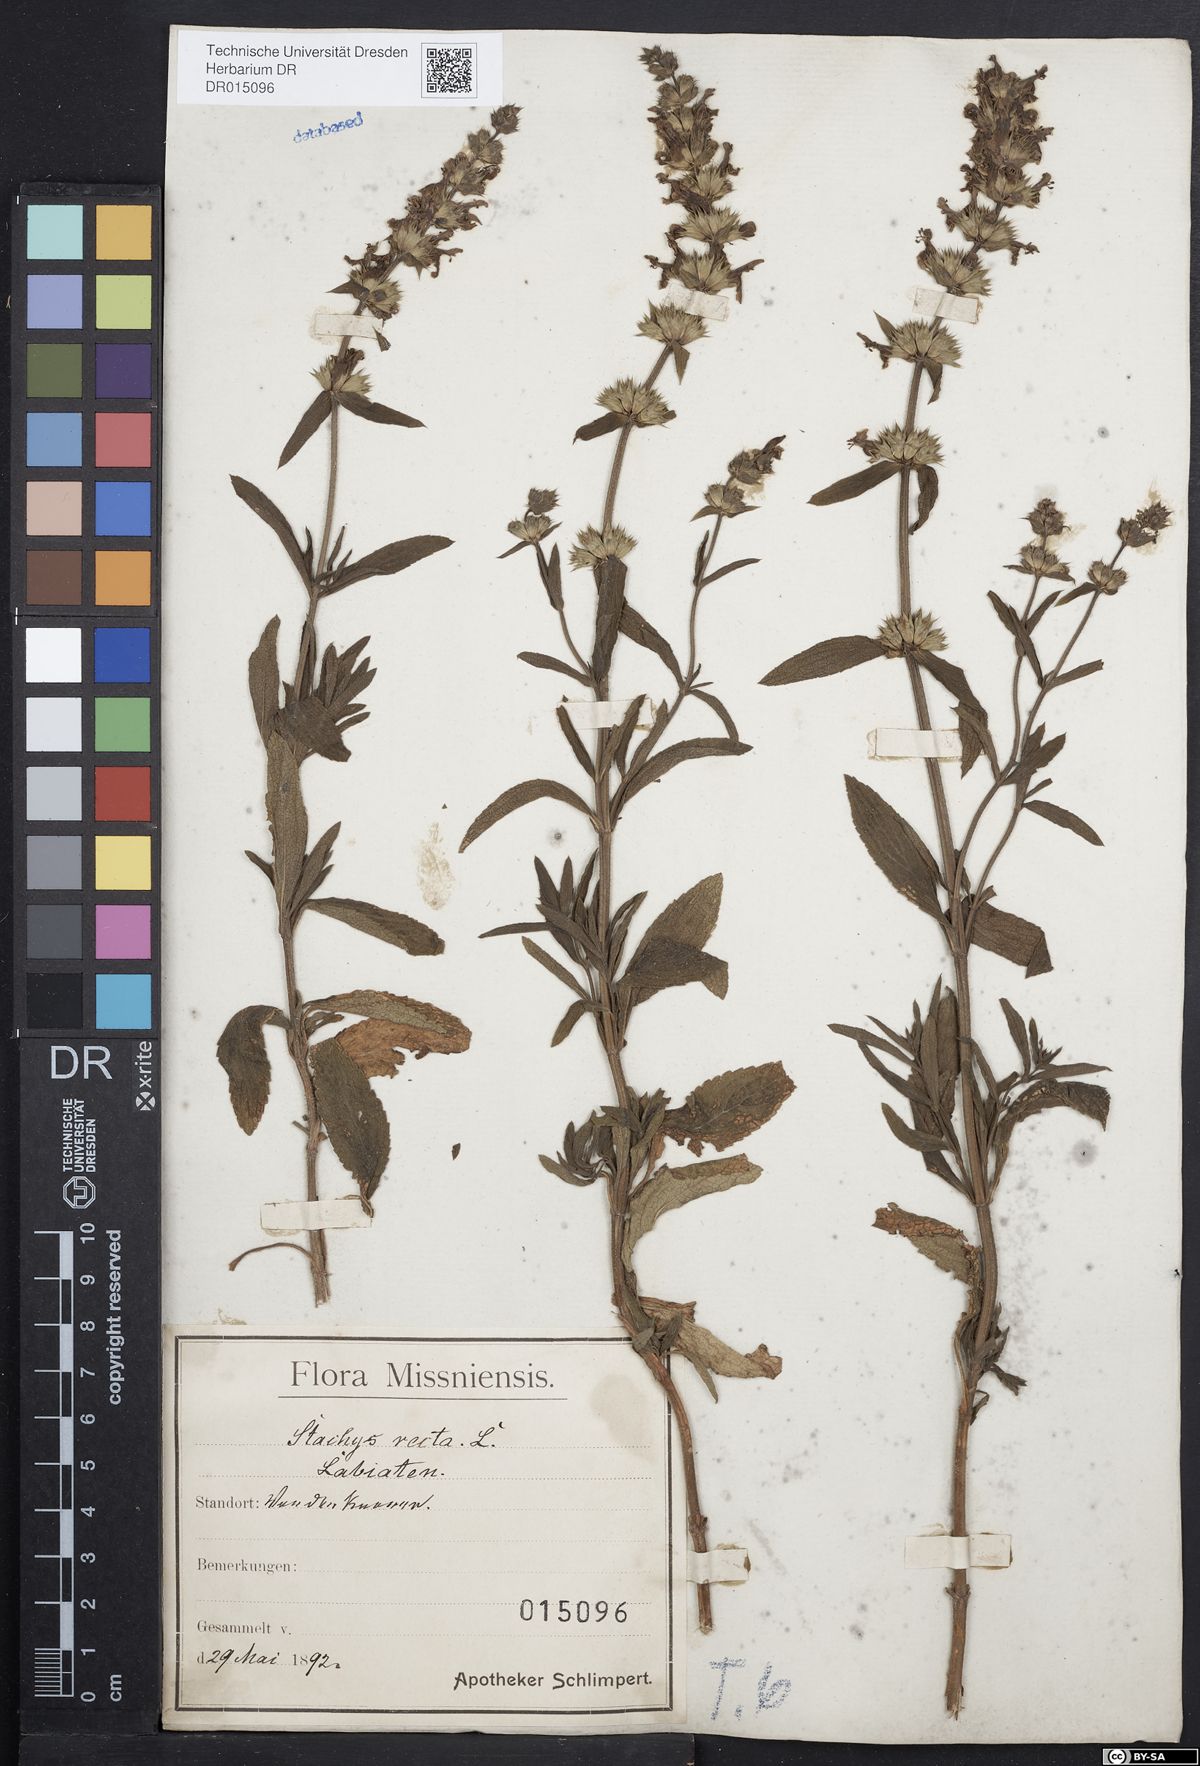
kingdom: Plantae
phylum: Tracheophyta
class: Magnoliopsida
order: Lamiales
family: Lamiaceae
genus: Stachys
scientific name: Stachys recta
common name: Perennial yellow-woundwort
